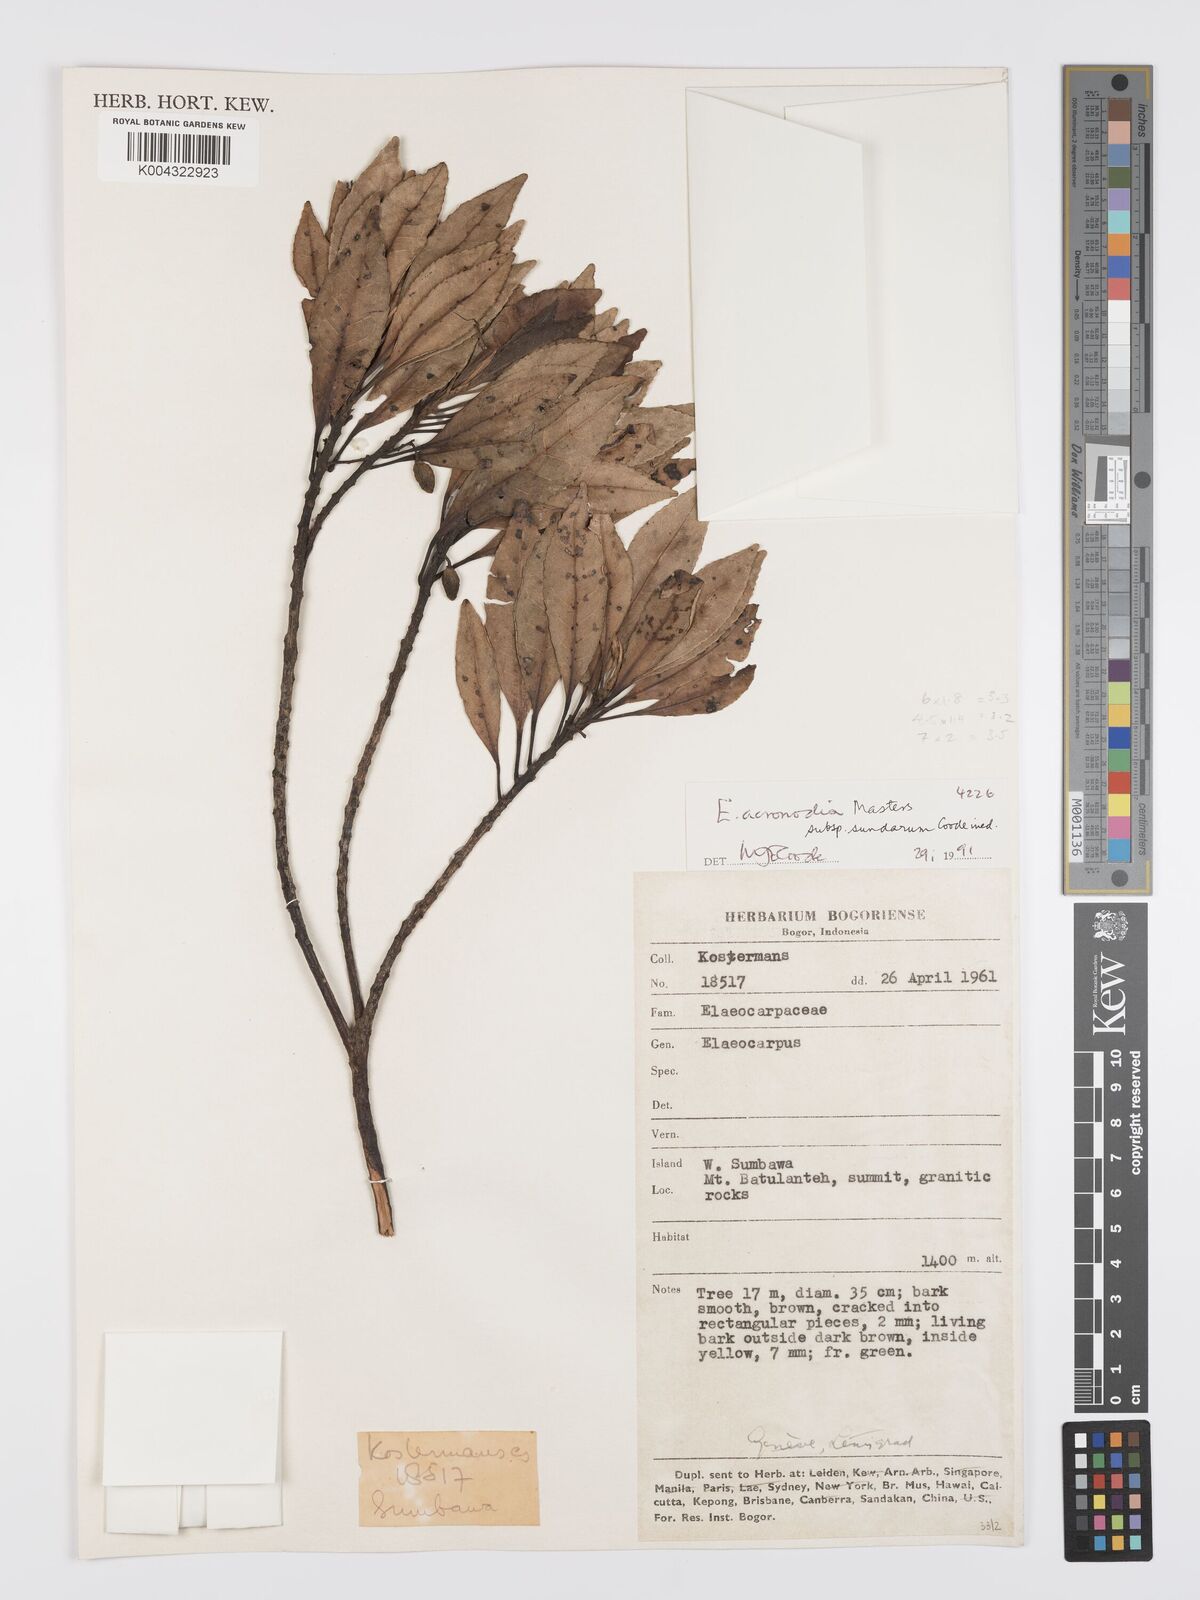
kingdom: Plantae
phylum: Tracheophyta
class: Magnoliopsida
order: Oxalidales
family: Elaeocarpaceae
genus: Elaeocarpus
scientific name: Elaeocarpus acronodia
